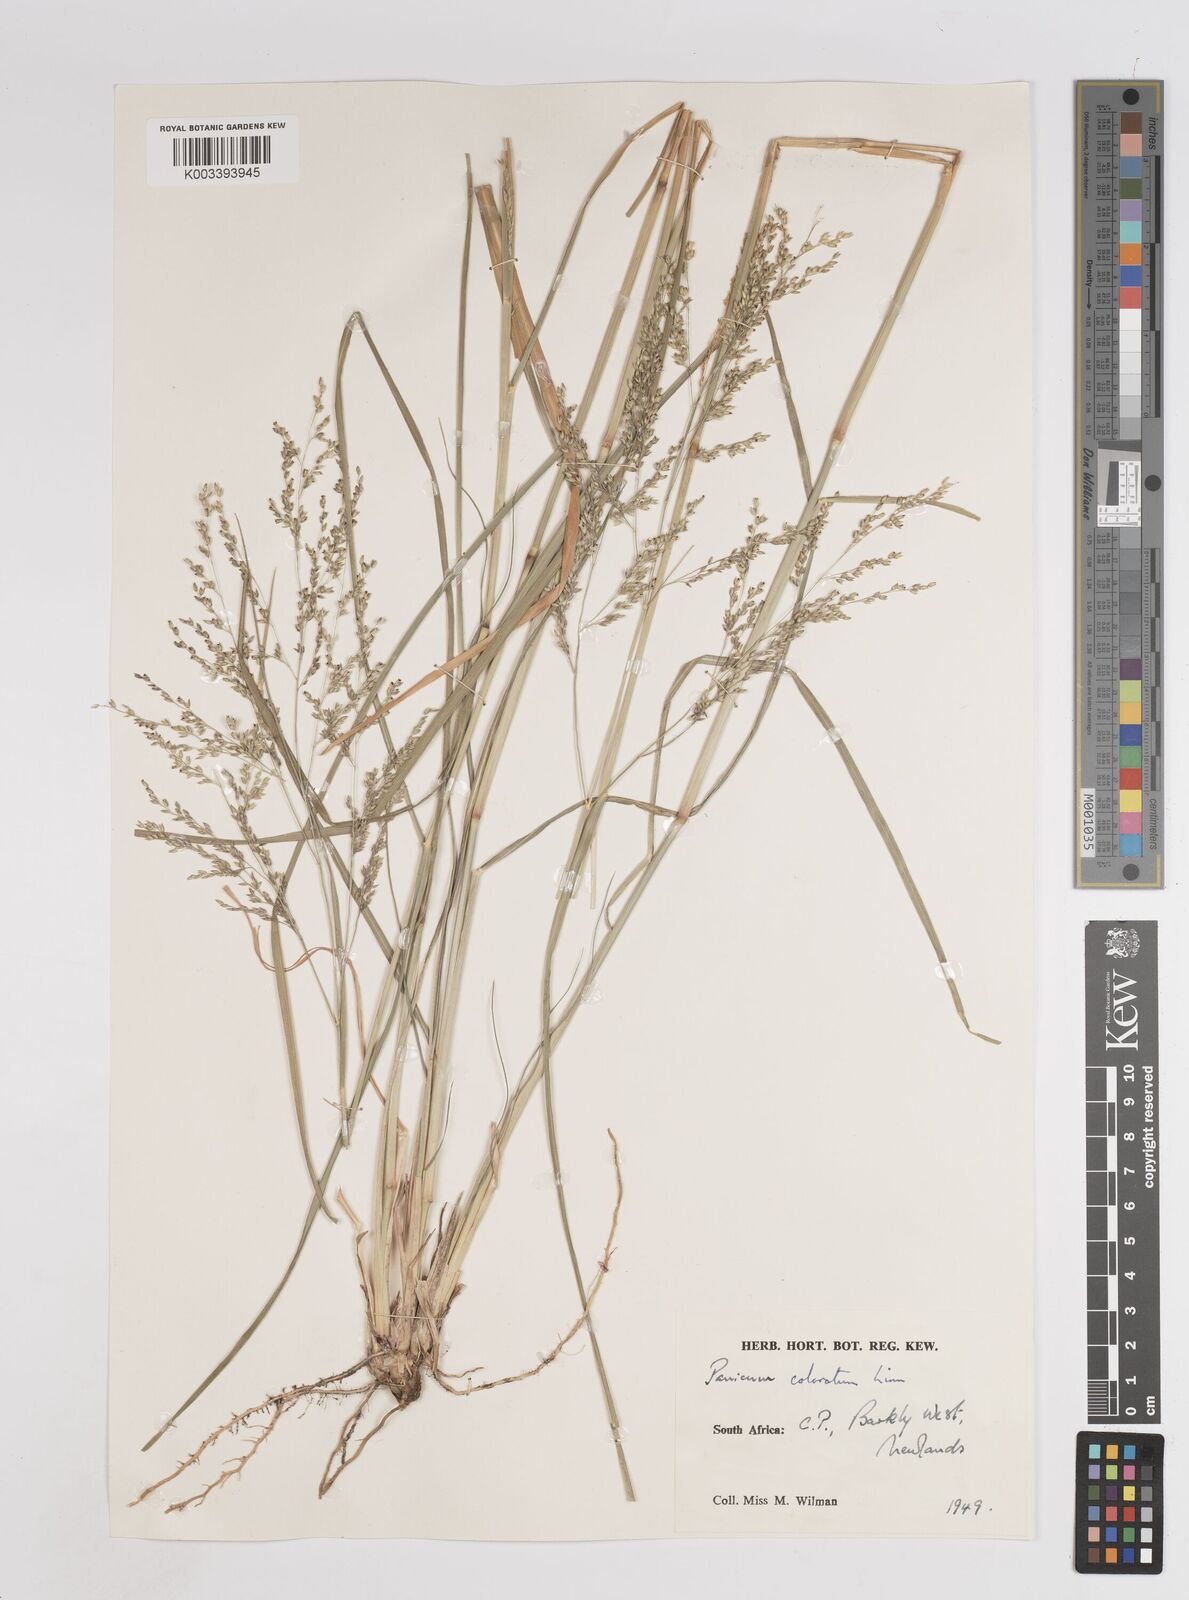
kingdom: Plantae
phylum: Tracheophyta
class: Liliopsida
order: Poales
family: Poaceae
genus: Panicum
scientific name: Panicum coloratum
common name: Kleingrass
